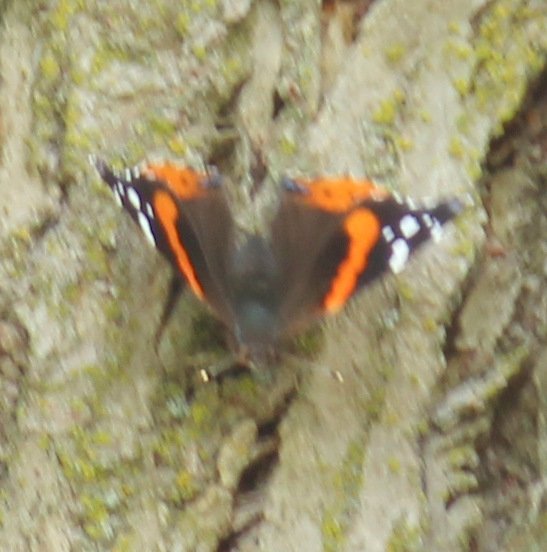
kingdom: Animalia
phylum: Arthropoda
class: Insecta
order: Lepidoptera
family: Nymphalidae
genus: Vanessa
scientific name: Vanessa atalanta
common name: Red Admiral
